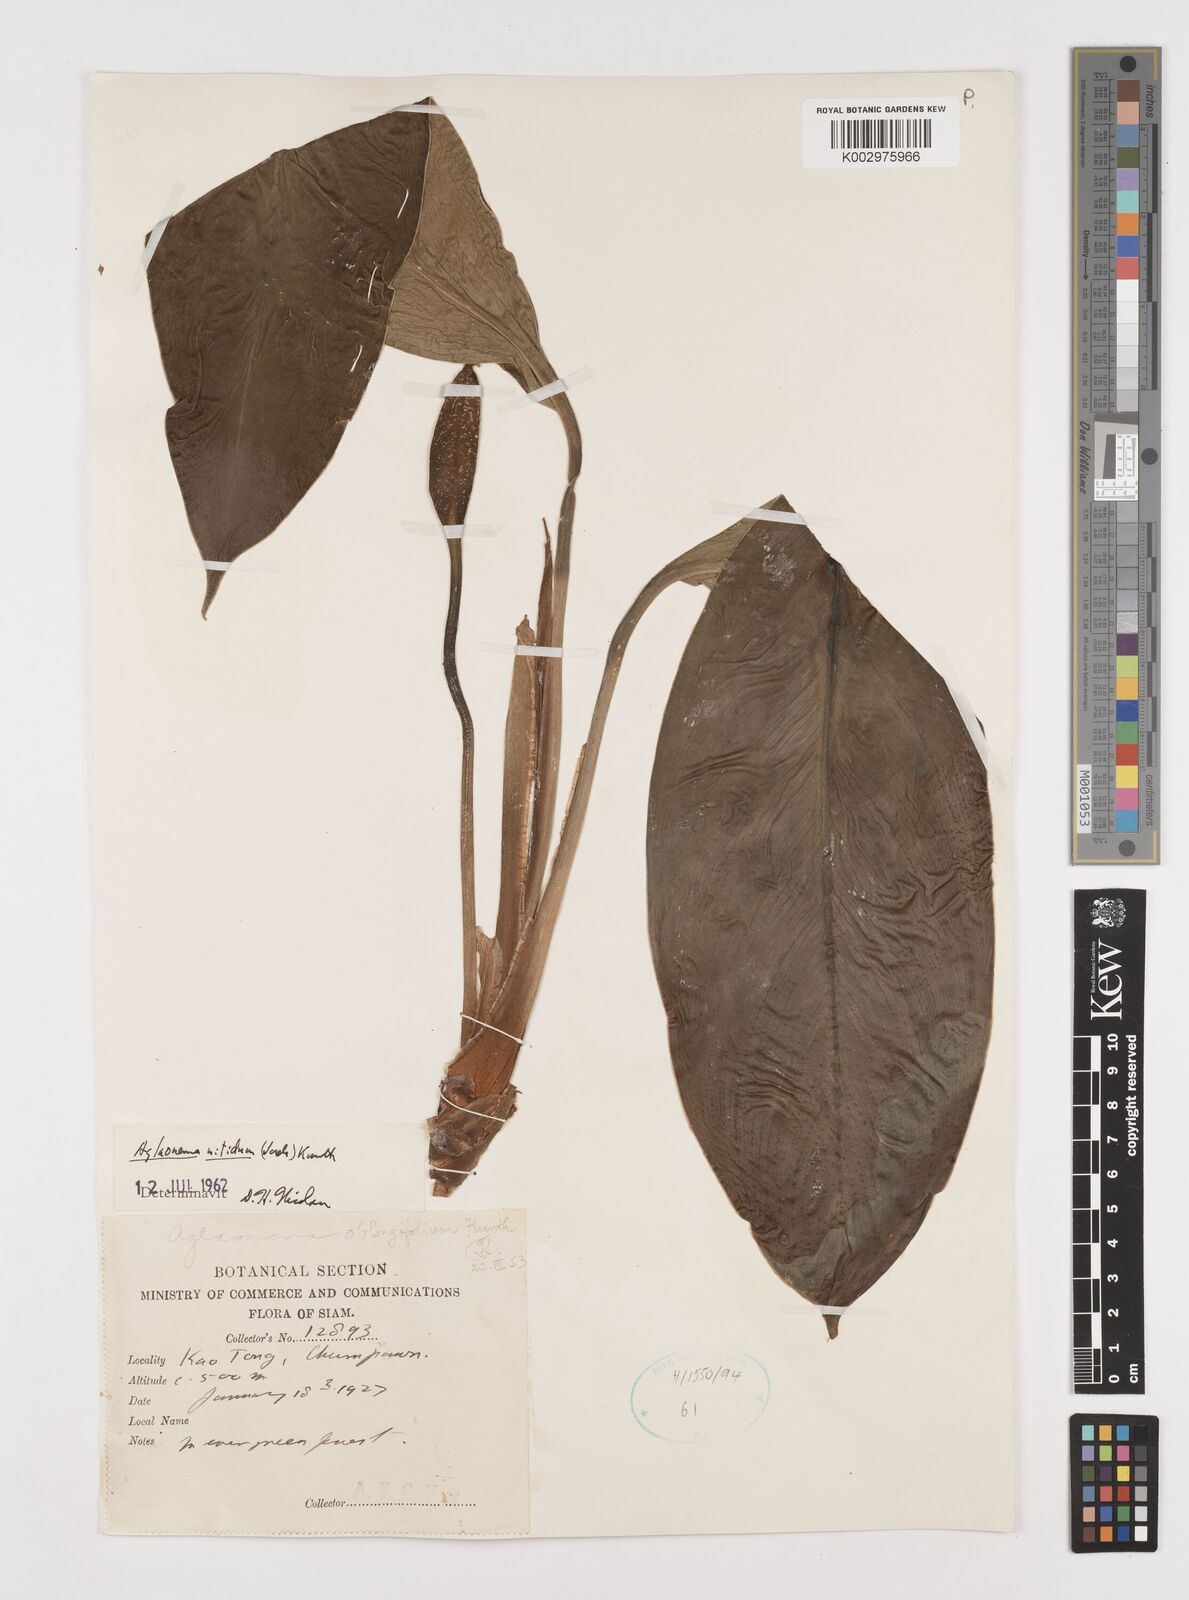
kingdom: Plantae
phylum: Tracheophyta
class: Liliopsida
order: Alismatales
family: Araceae
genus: Aglaonema
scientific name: Aglaonema nitidum
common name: Aglaonema aroid
